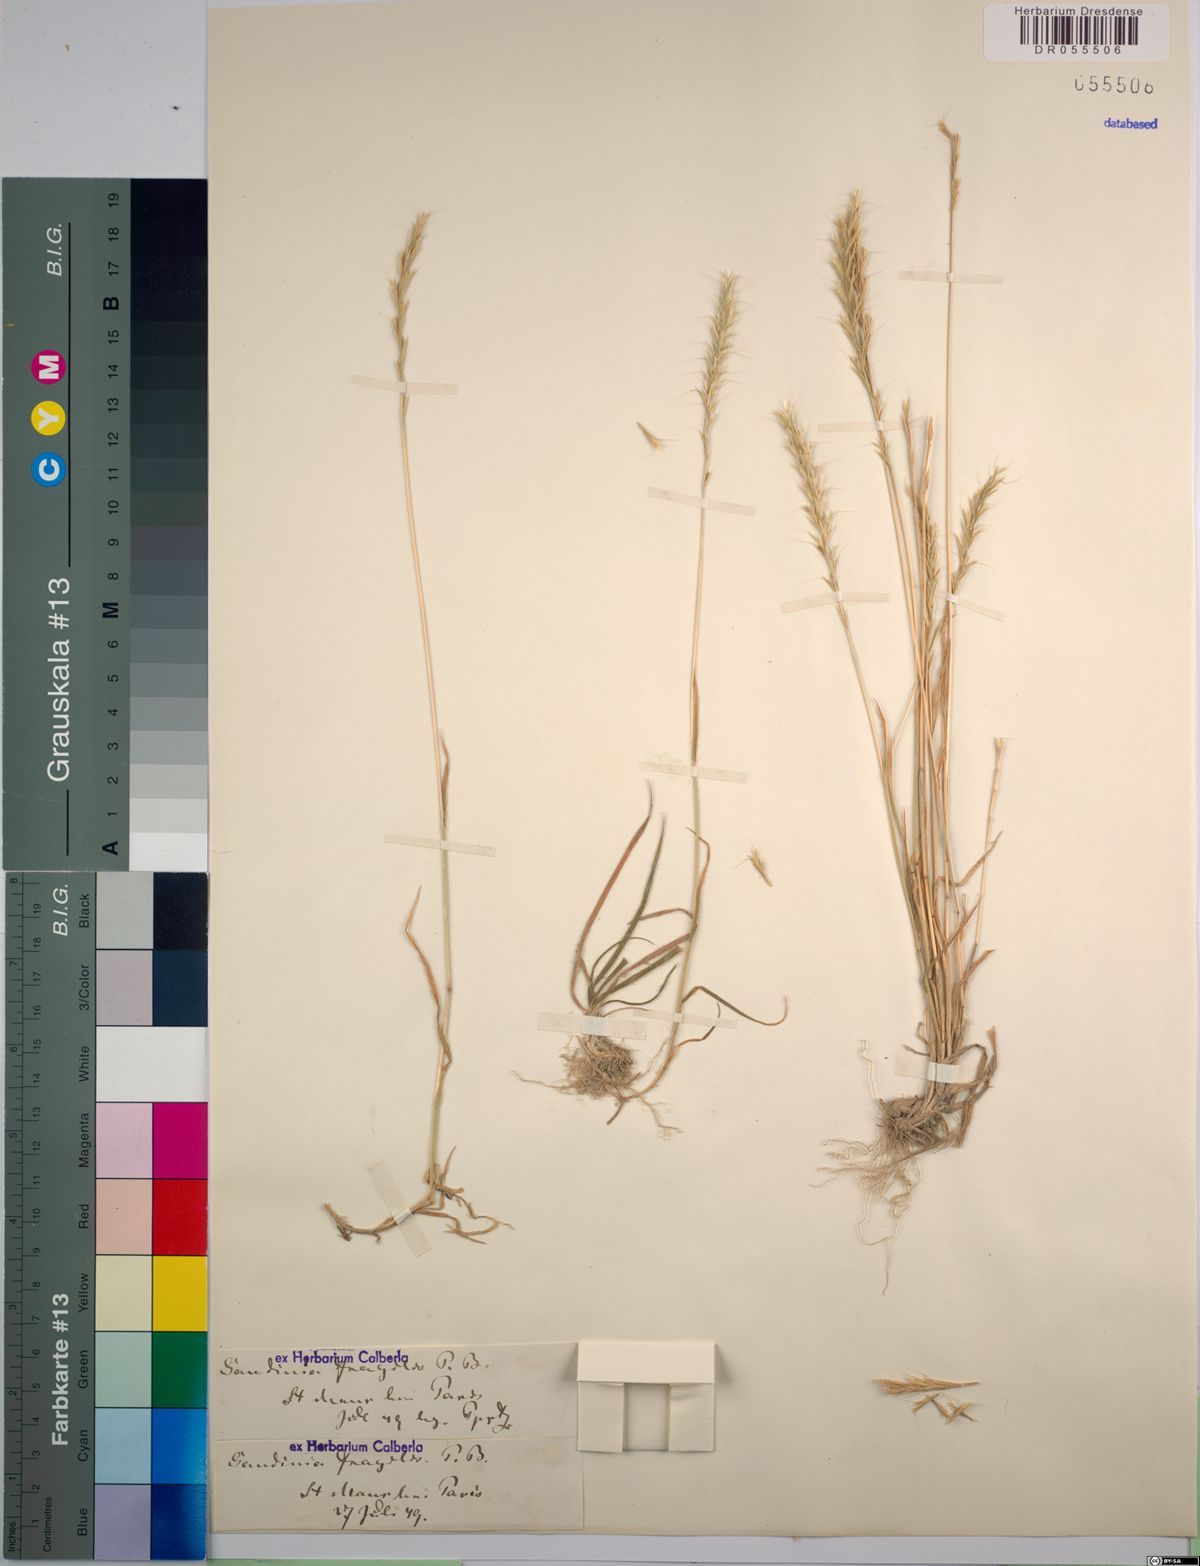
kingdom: Plantae
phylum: Tracheophyta
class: Liliopsida
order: Poales
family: Poaceae
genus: Gaudinia
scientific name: Gaudinia fragilis
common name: French oat-grass
